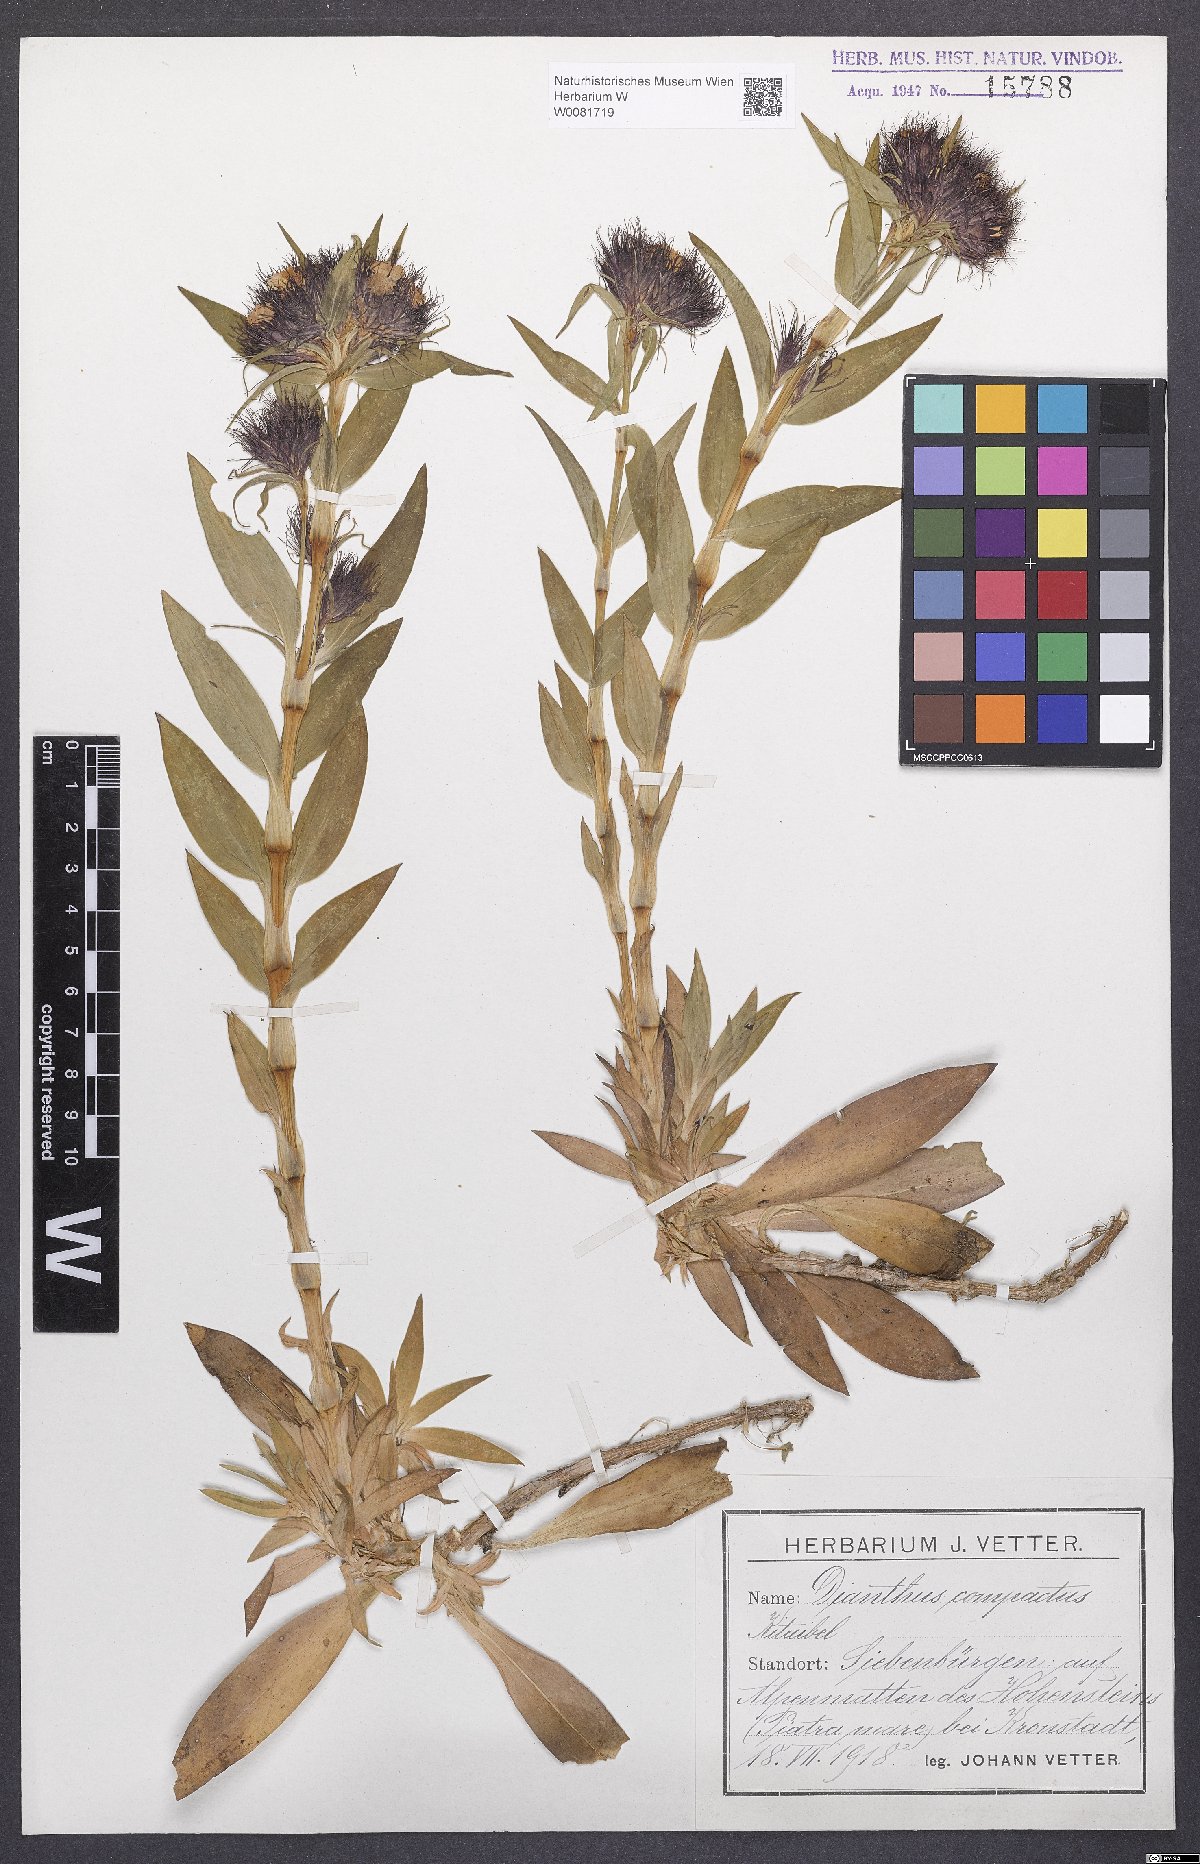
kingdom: Plantae
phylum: Tracheophyta
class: Magnoliopsida
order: Caryophyllales
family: Caryophyllaceae
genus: Dianthus
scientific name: Dianthus barbatus
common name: Sweet-william
